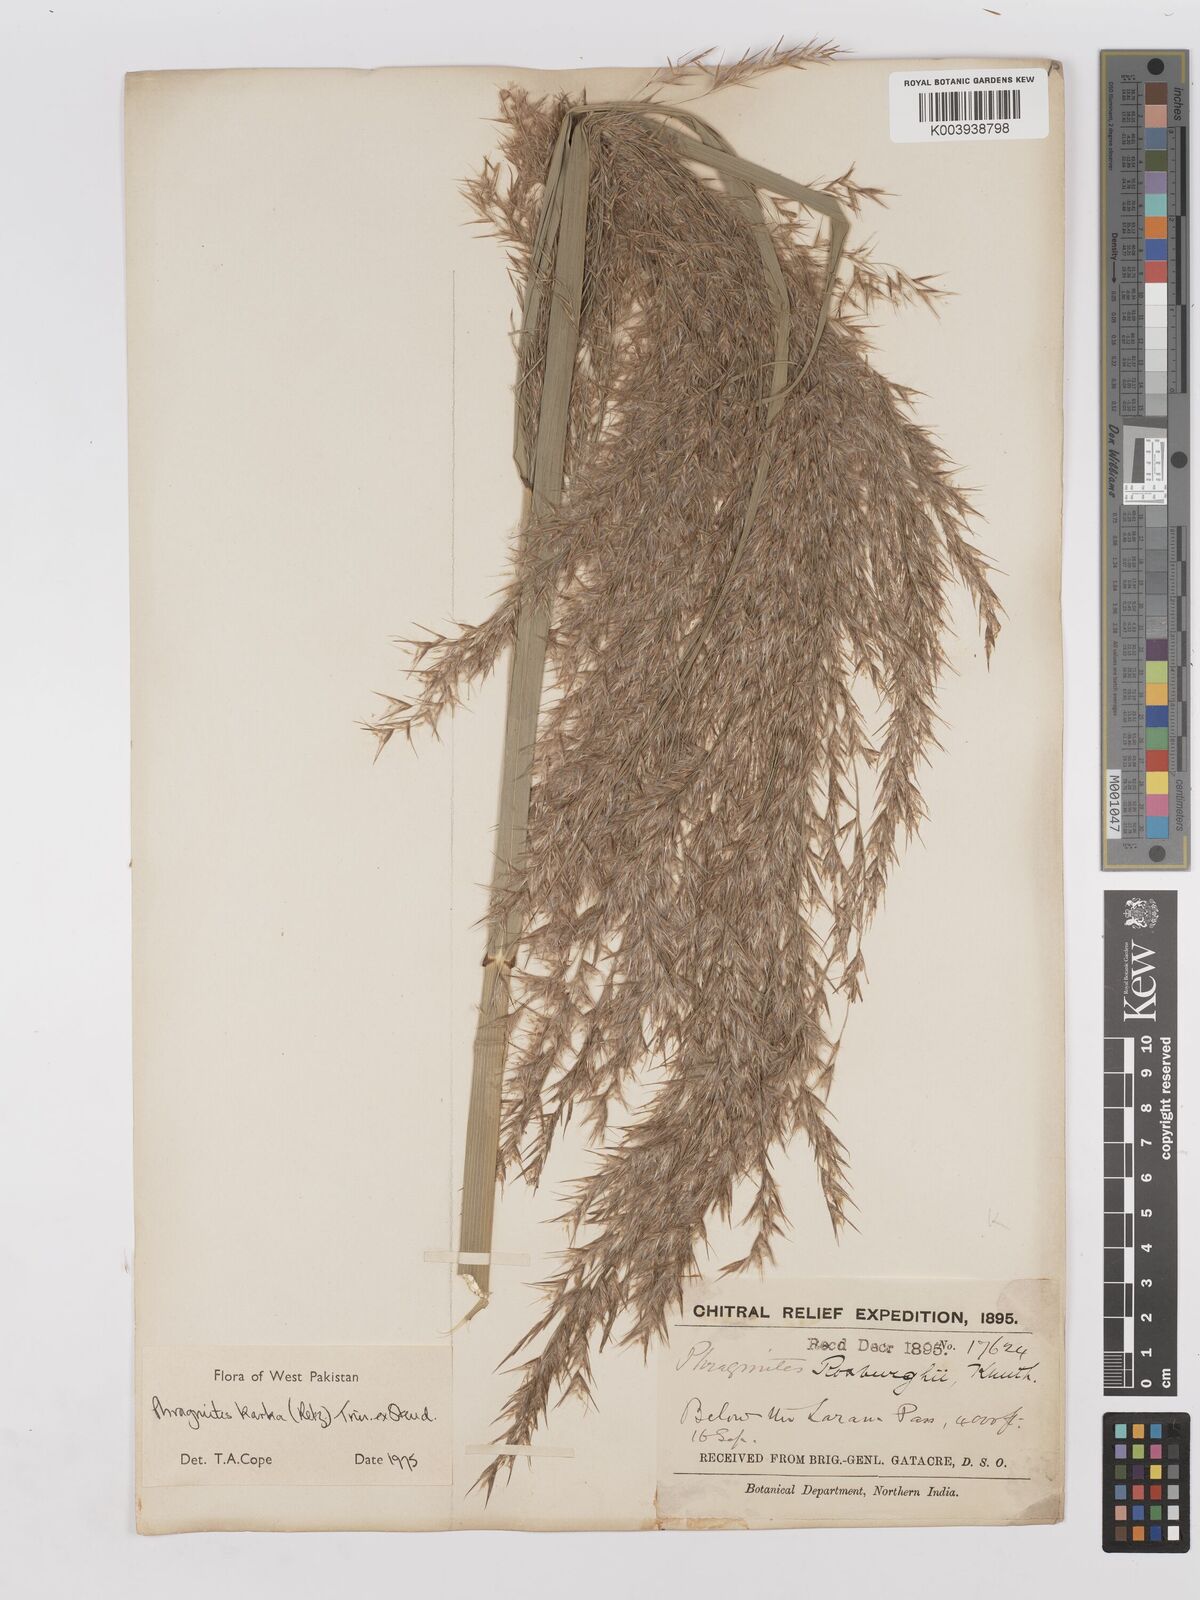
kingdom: Plantae
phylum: Tracheophyta
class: Liliopsida
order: Poales
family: Poaceae
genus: Phragmites
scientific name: Phragmites karka
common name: Tropical reed
